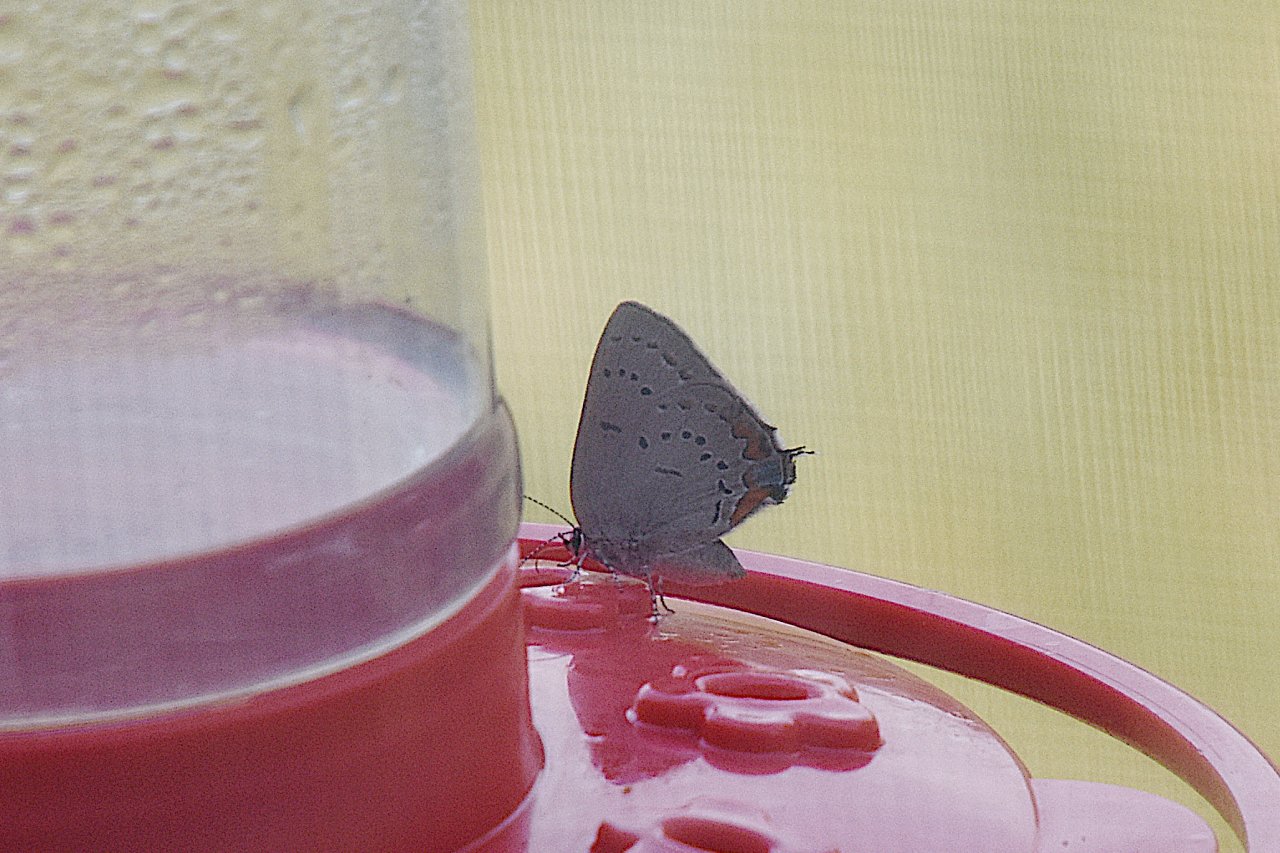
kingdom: Animalia
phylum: Arthropoda
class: Insecta
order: Lepidoptera
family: Lycaenidae
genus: Strymon
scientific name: Strymon acadica
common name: Acadian Hairstreak
